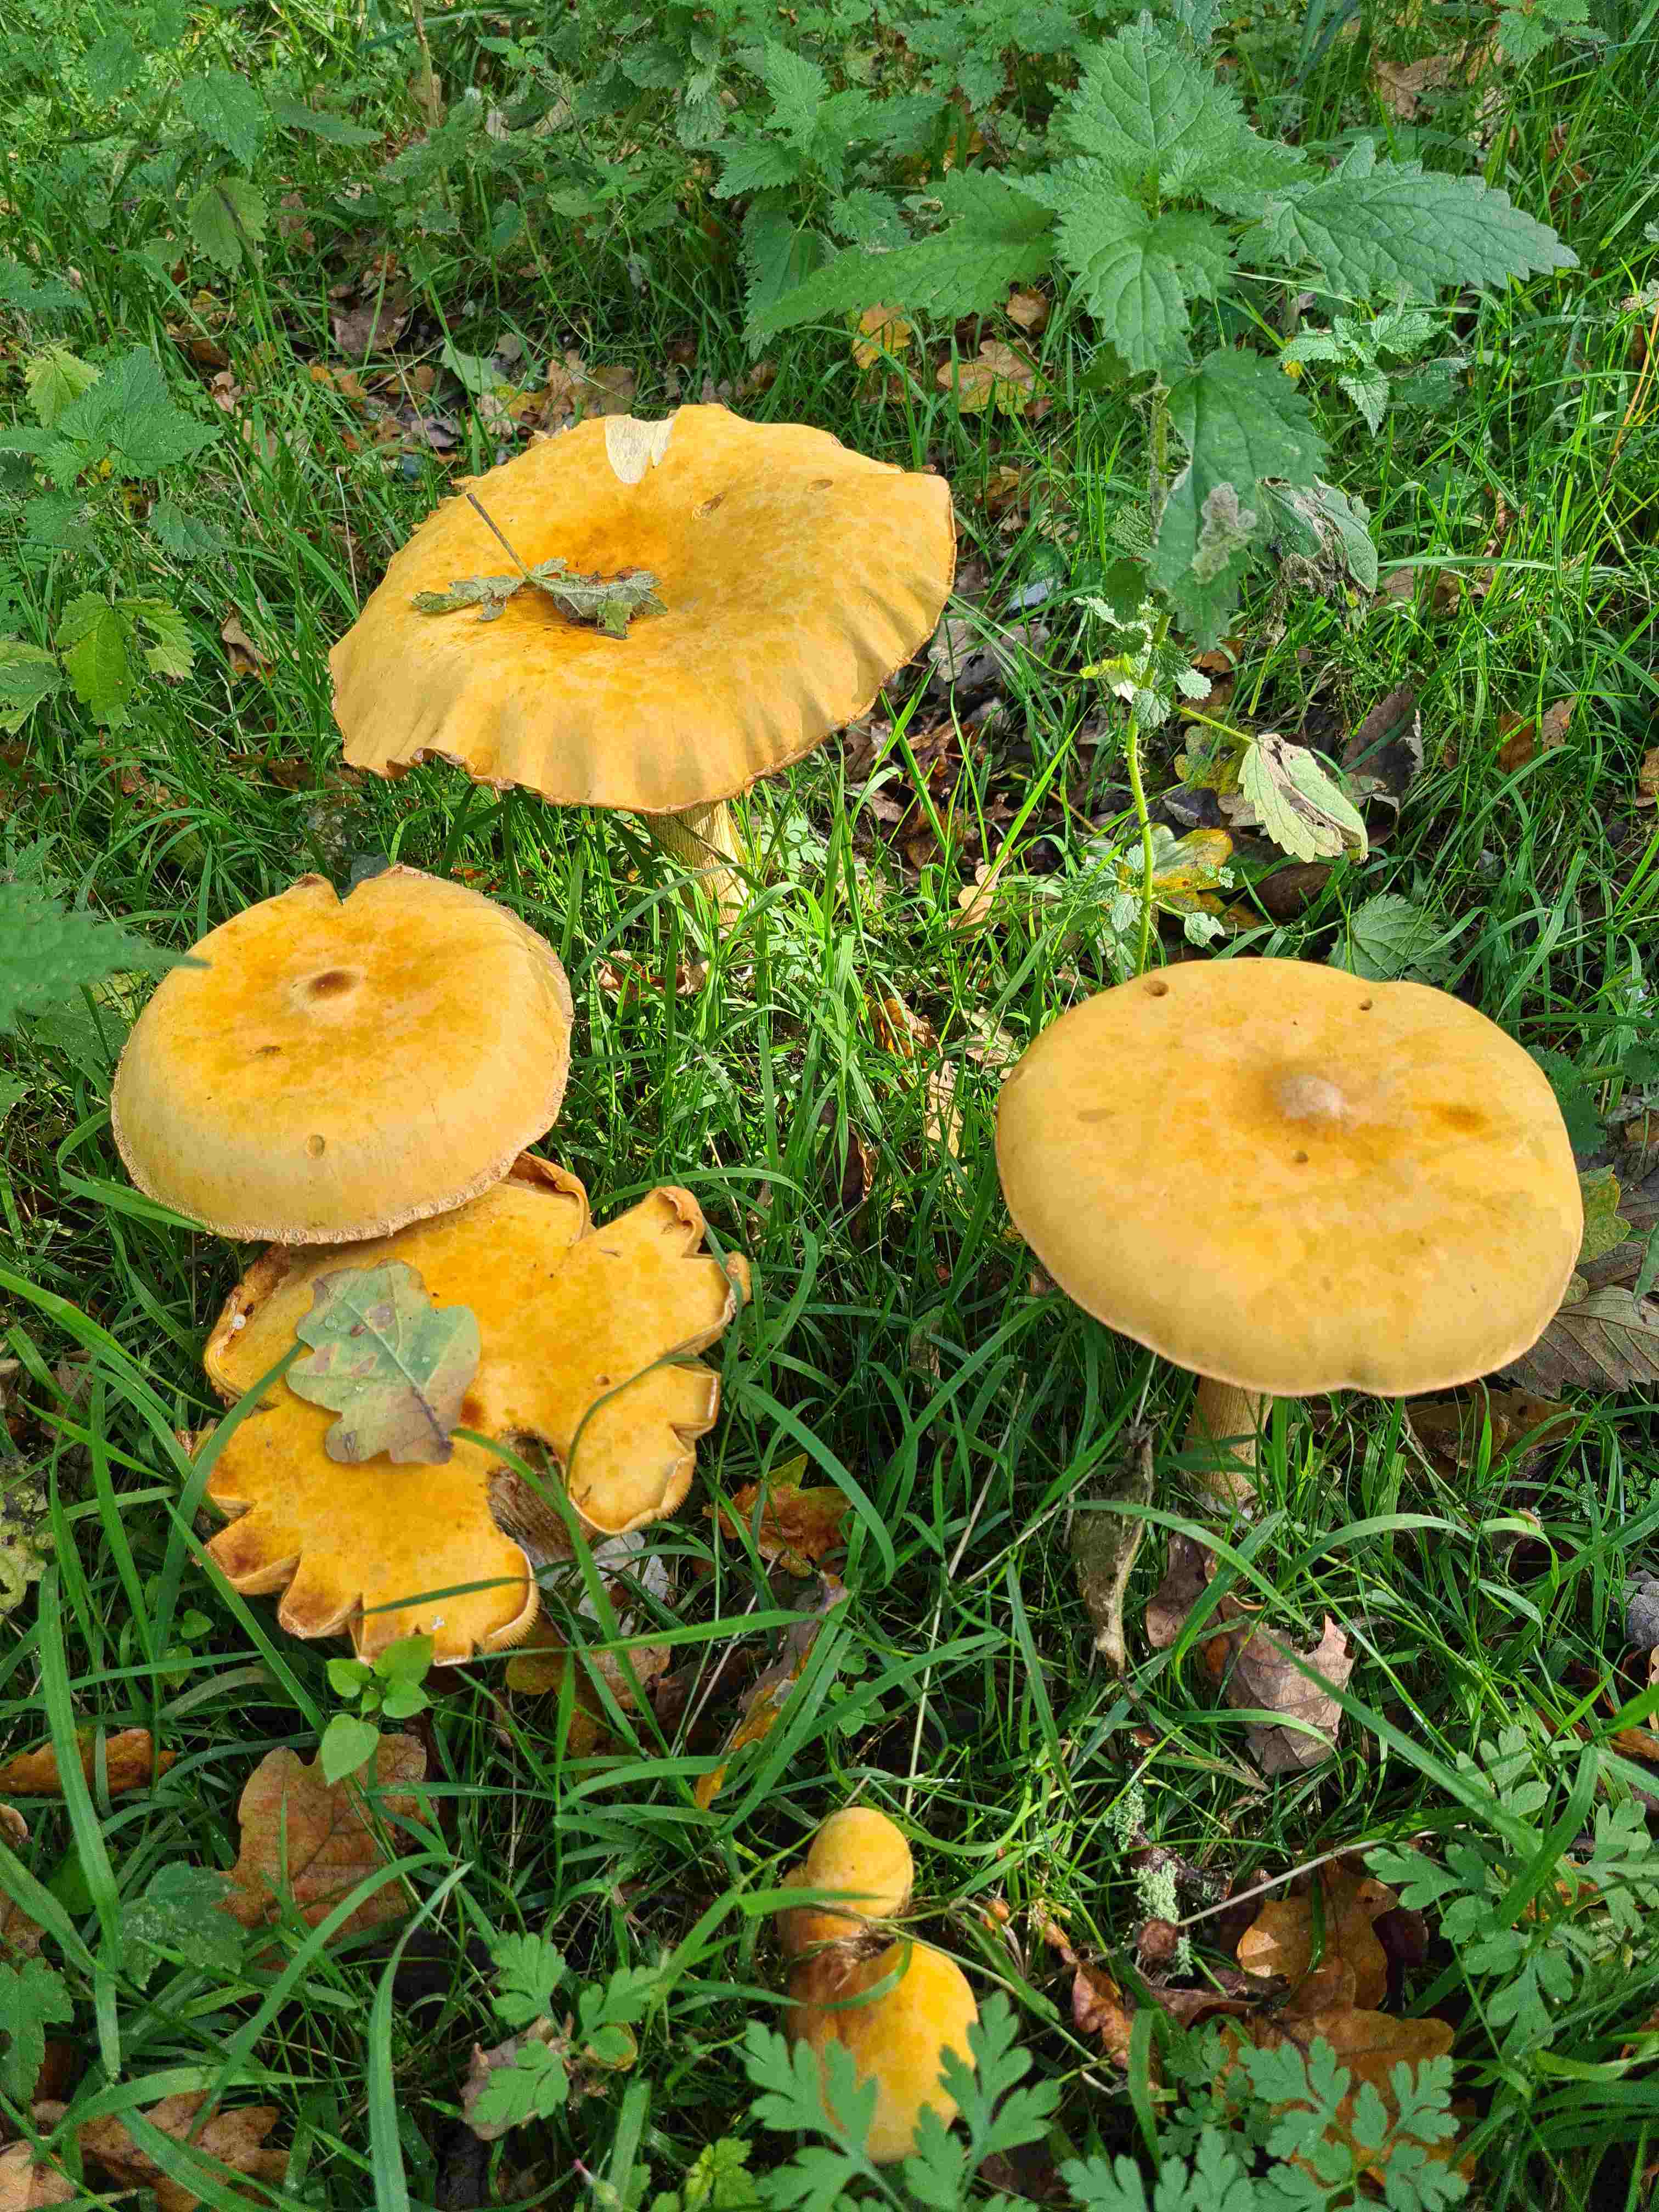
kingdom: Fungi
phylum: Basidiomycota
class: Agaricomycetes
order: Agaricales
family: Tricholomataceae
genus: Phaeolepiota
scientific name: Phaeolepiota aurea
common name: gyldenhat
